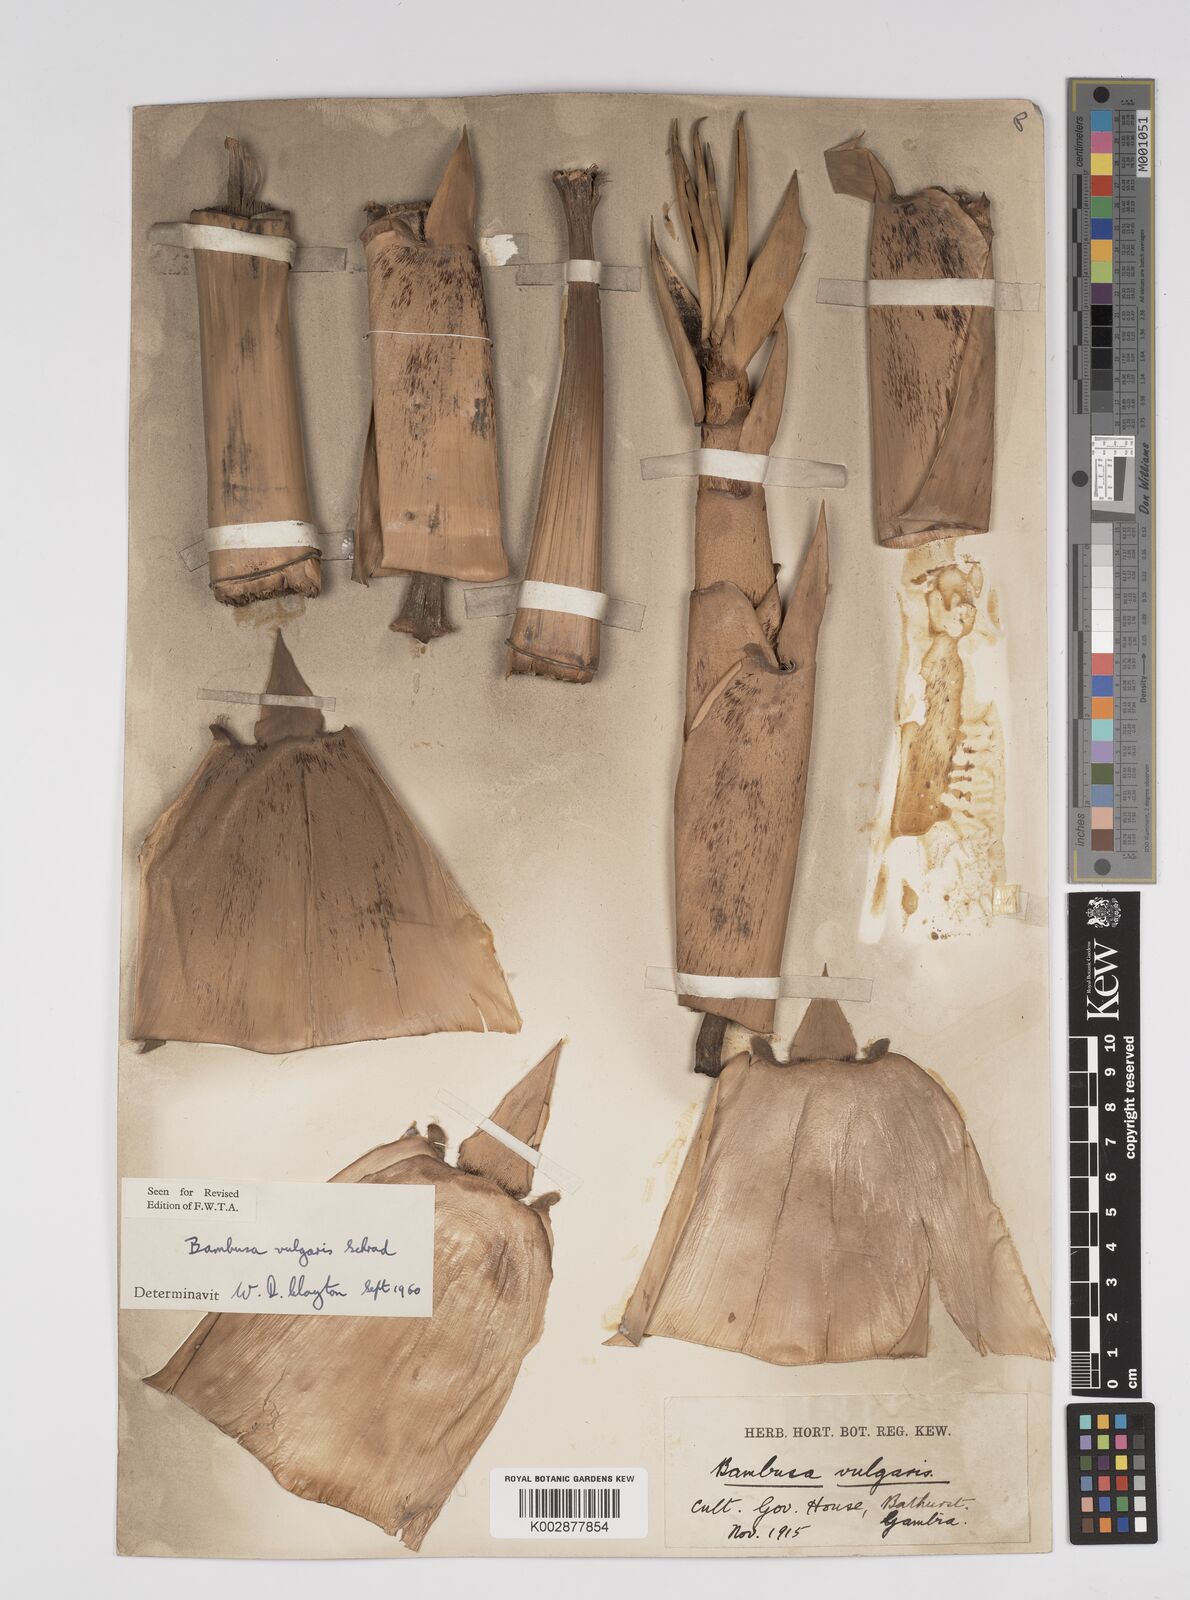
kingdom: Plantae
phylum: Tracheophyta
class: Liliopsida
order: Poales
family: Poaceae
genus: Bambusa
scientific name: Bambusa vulgaris
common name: Common bamboo
